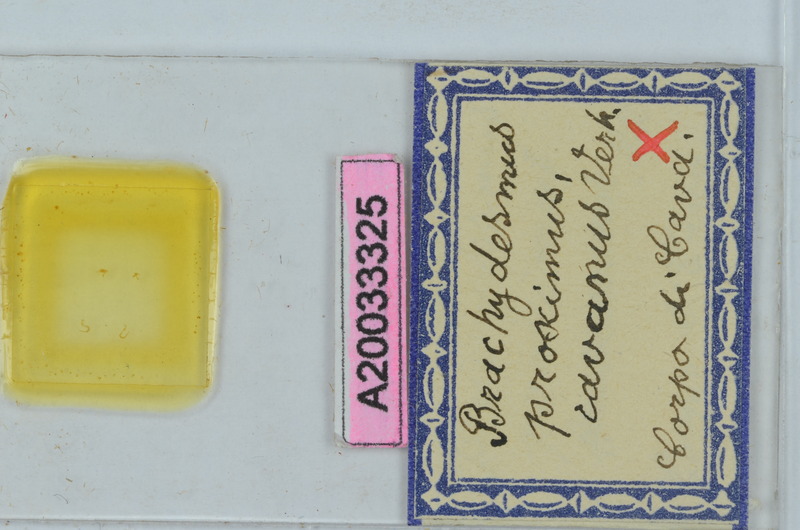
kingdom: Animalia
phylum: Arthropoda
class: Diplopoda
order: Polydesmida
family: Polydesmidae
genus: Brachydesmus
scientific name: Brachydesmus proximus
